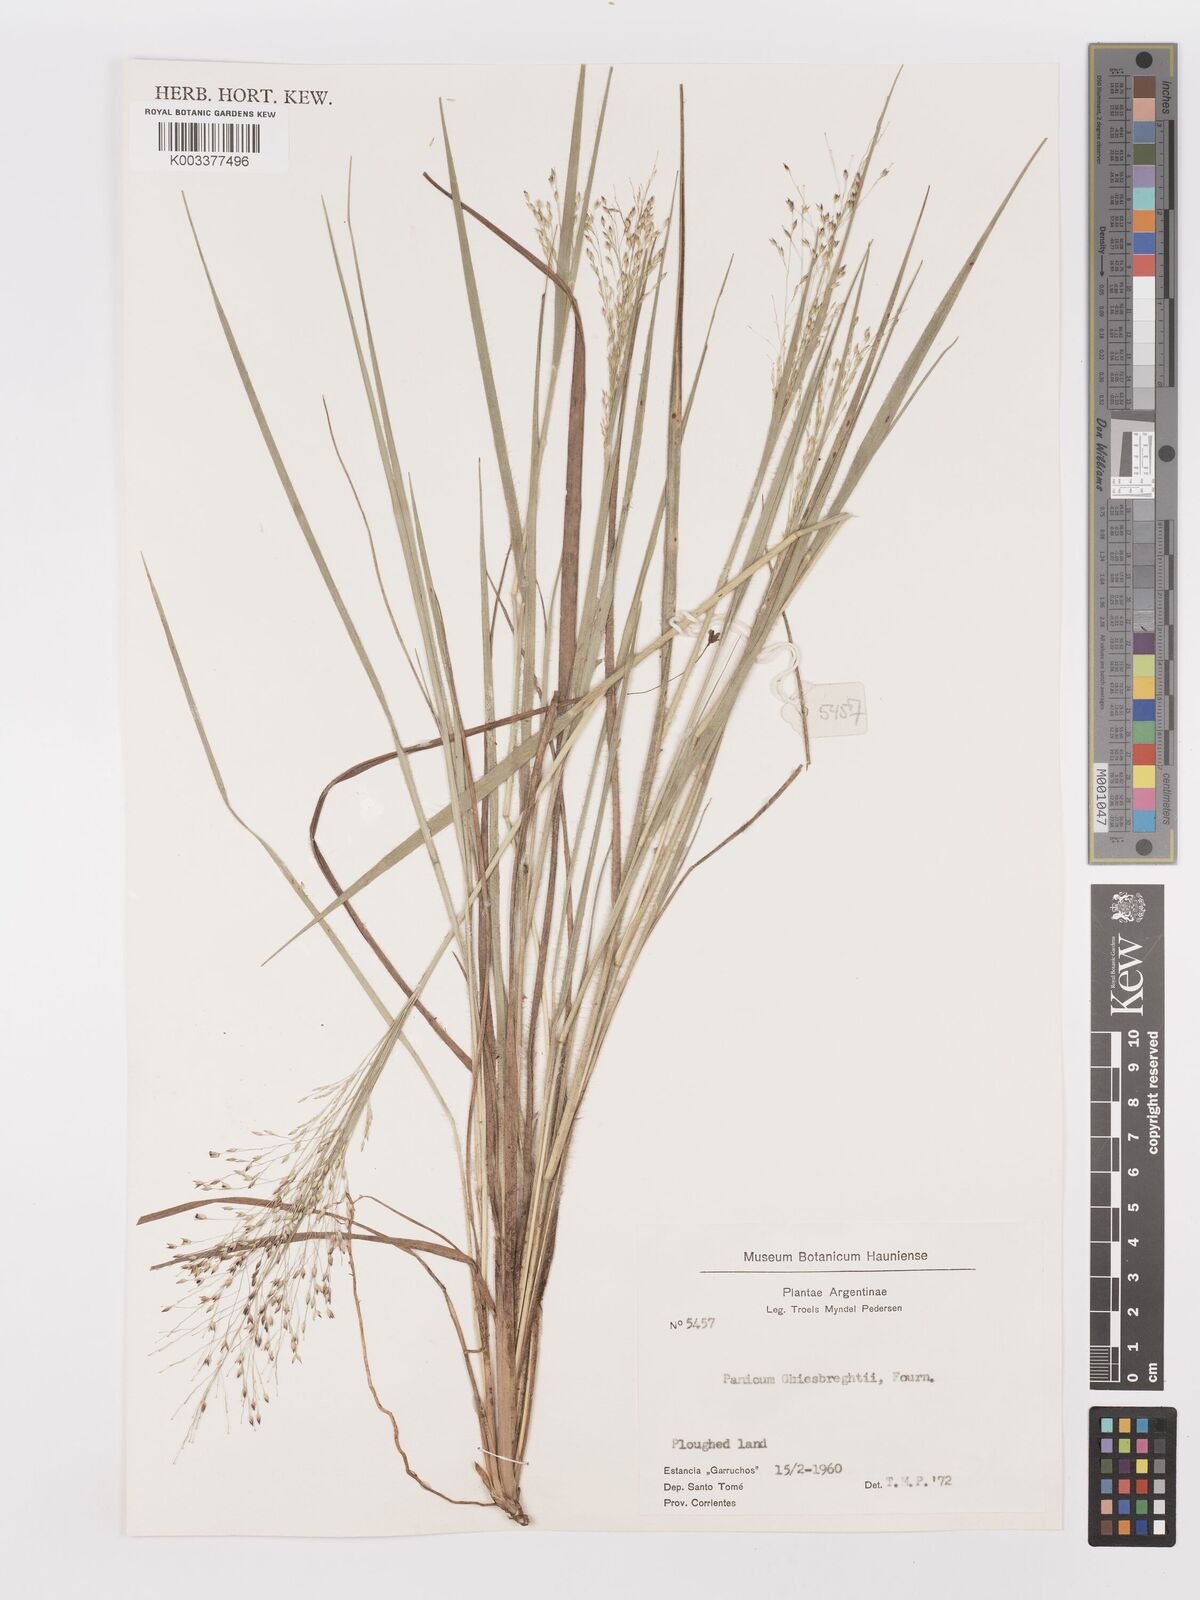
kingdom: Plantae
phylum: Tracheophyta
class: Liliopsida
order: Poales
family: Poaceae
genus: Panicum
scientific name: Panicum peladoense
